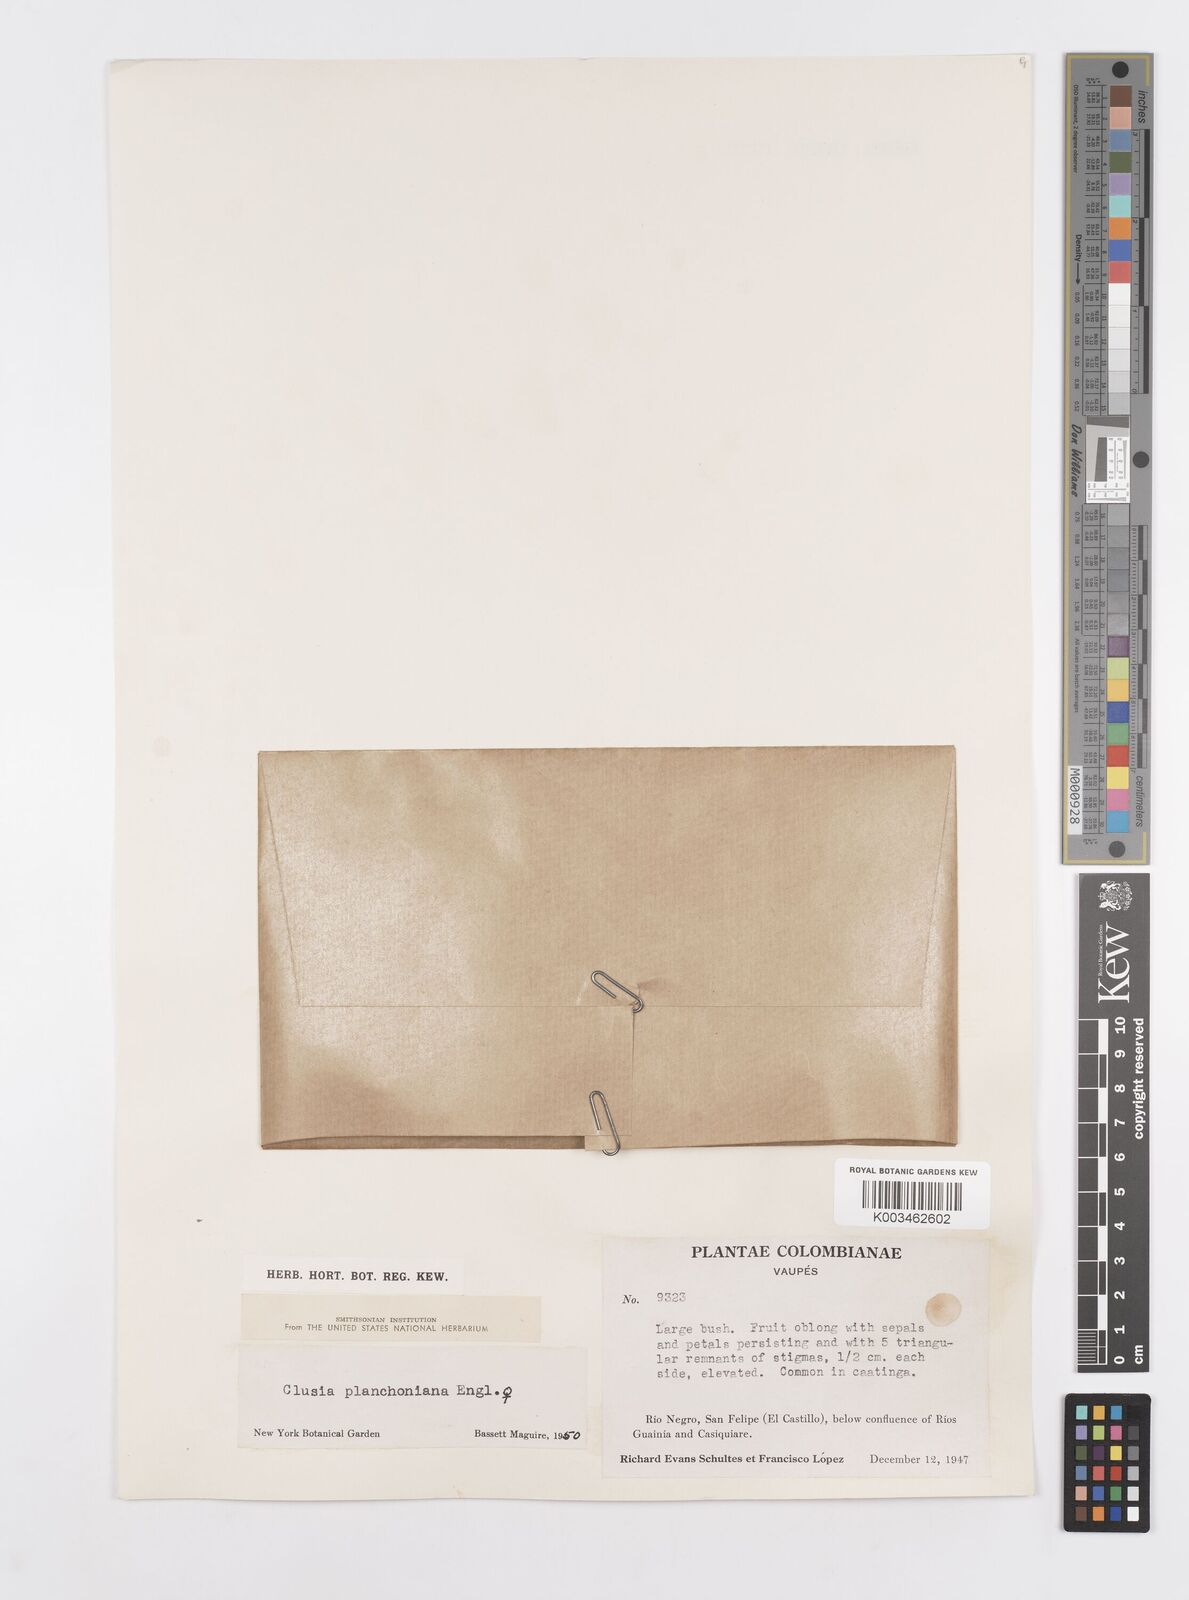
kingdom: Plantae
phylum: Tracheophyta
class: Magnoliopsida
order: Malpighiales
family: Clusiaceae
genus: Clusia
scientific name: Clusia planchoniana
